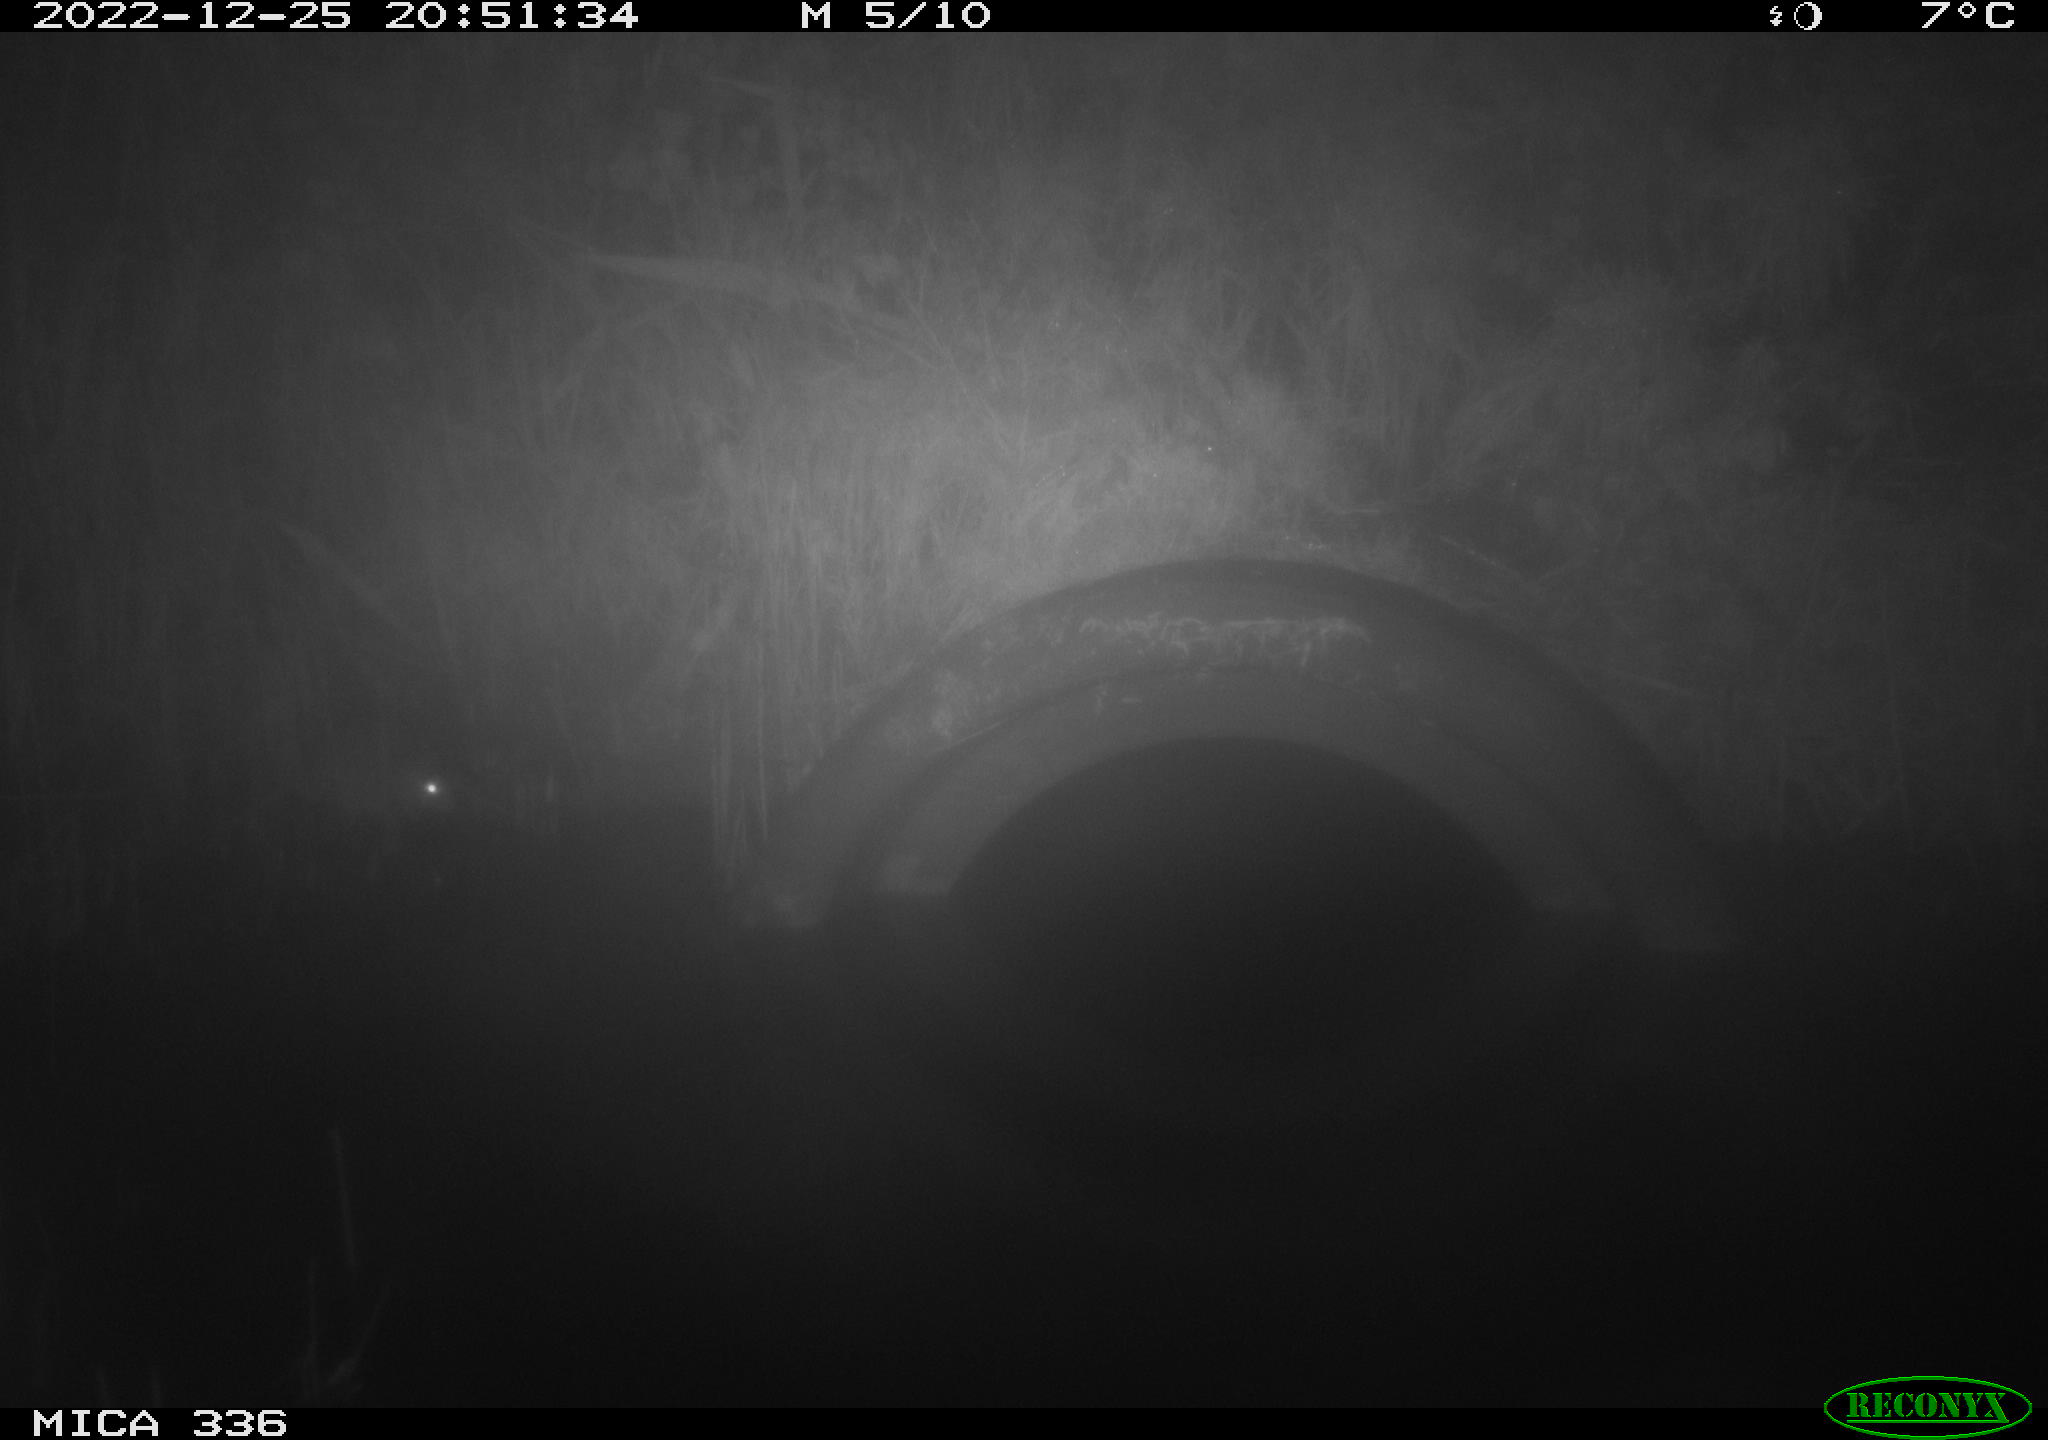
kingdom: Animalia
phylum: Chordata
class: Mammalia
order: Rodentia
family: Muridae
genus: Rattus
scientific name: Rattus norvegicus
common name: Brown rat
